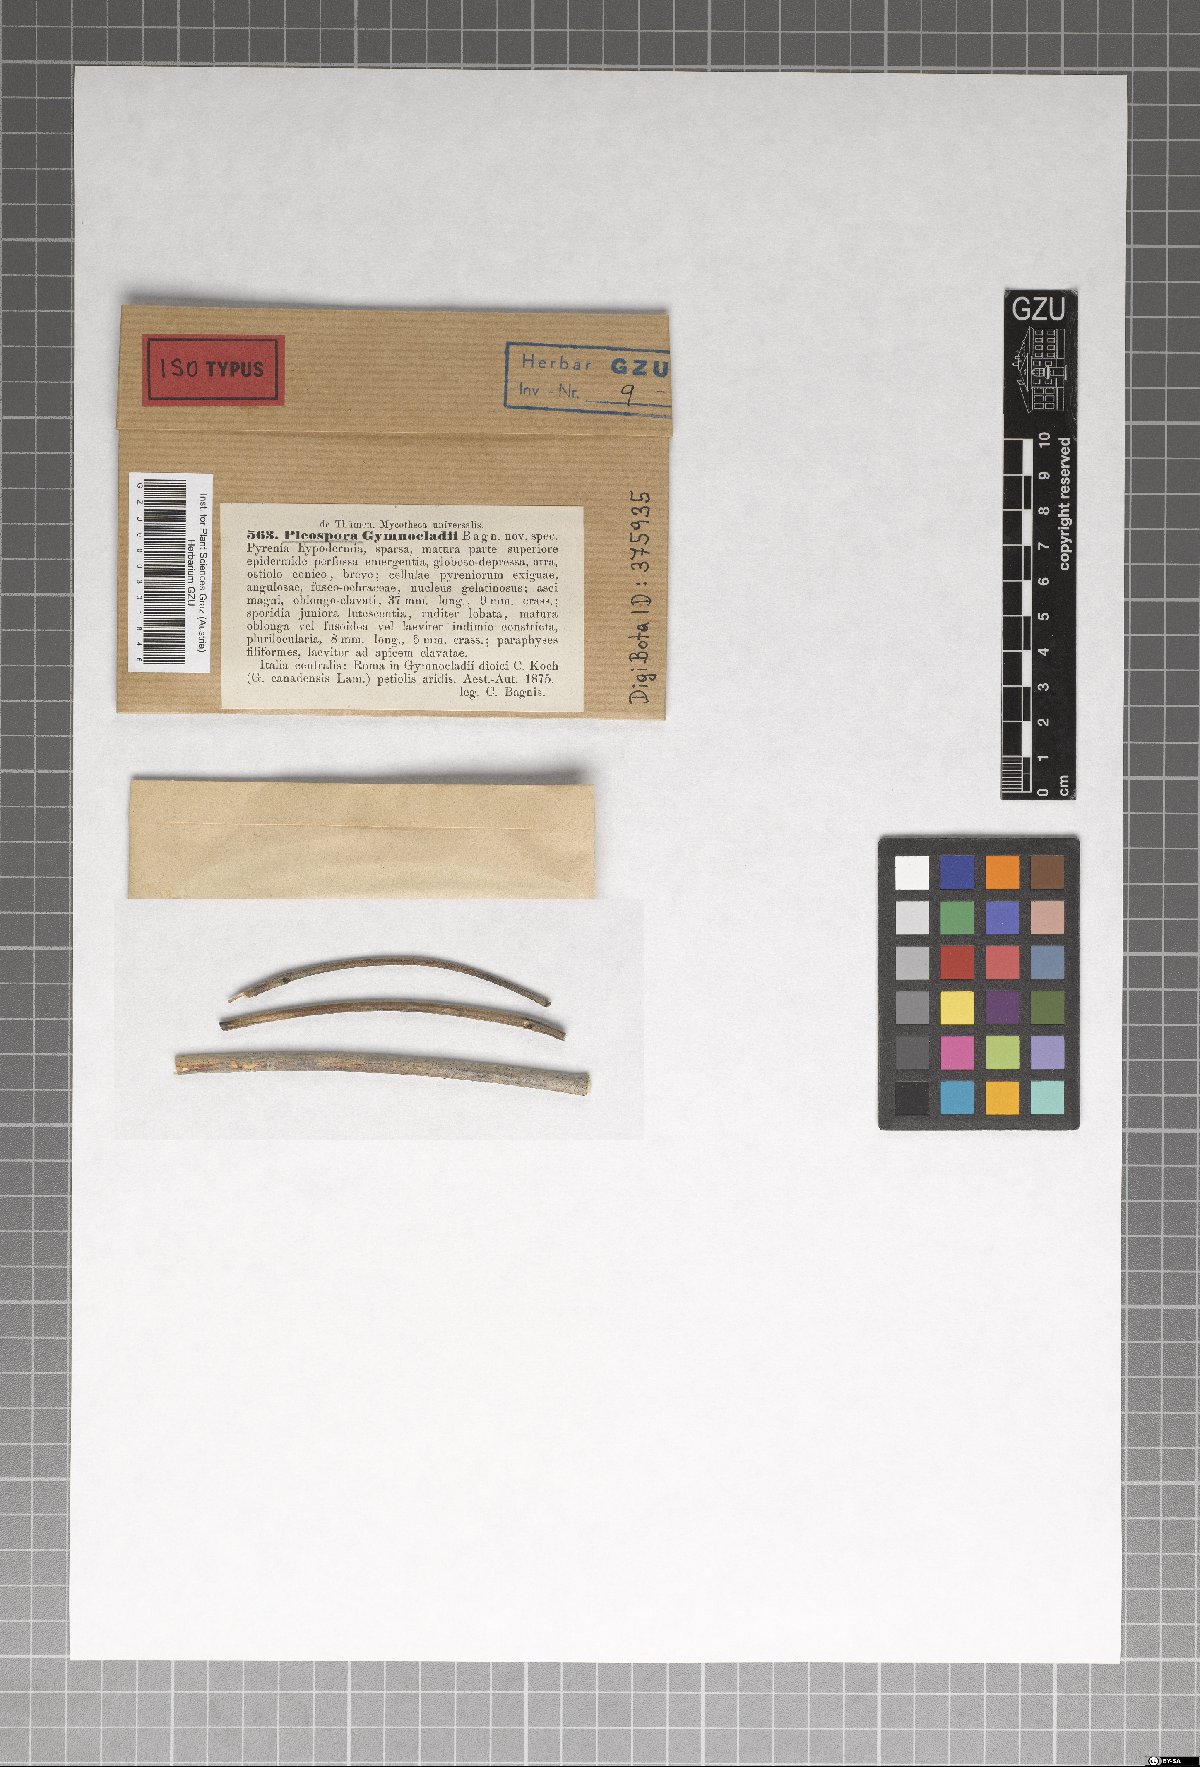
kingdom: Fungi
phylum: Ascomycota
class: Dothideomycetes
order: Pleosporales
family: Pleosporaceae
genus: Stemphylium
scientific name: Stemphylium vesicarium
